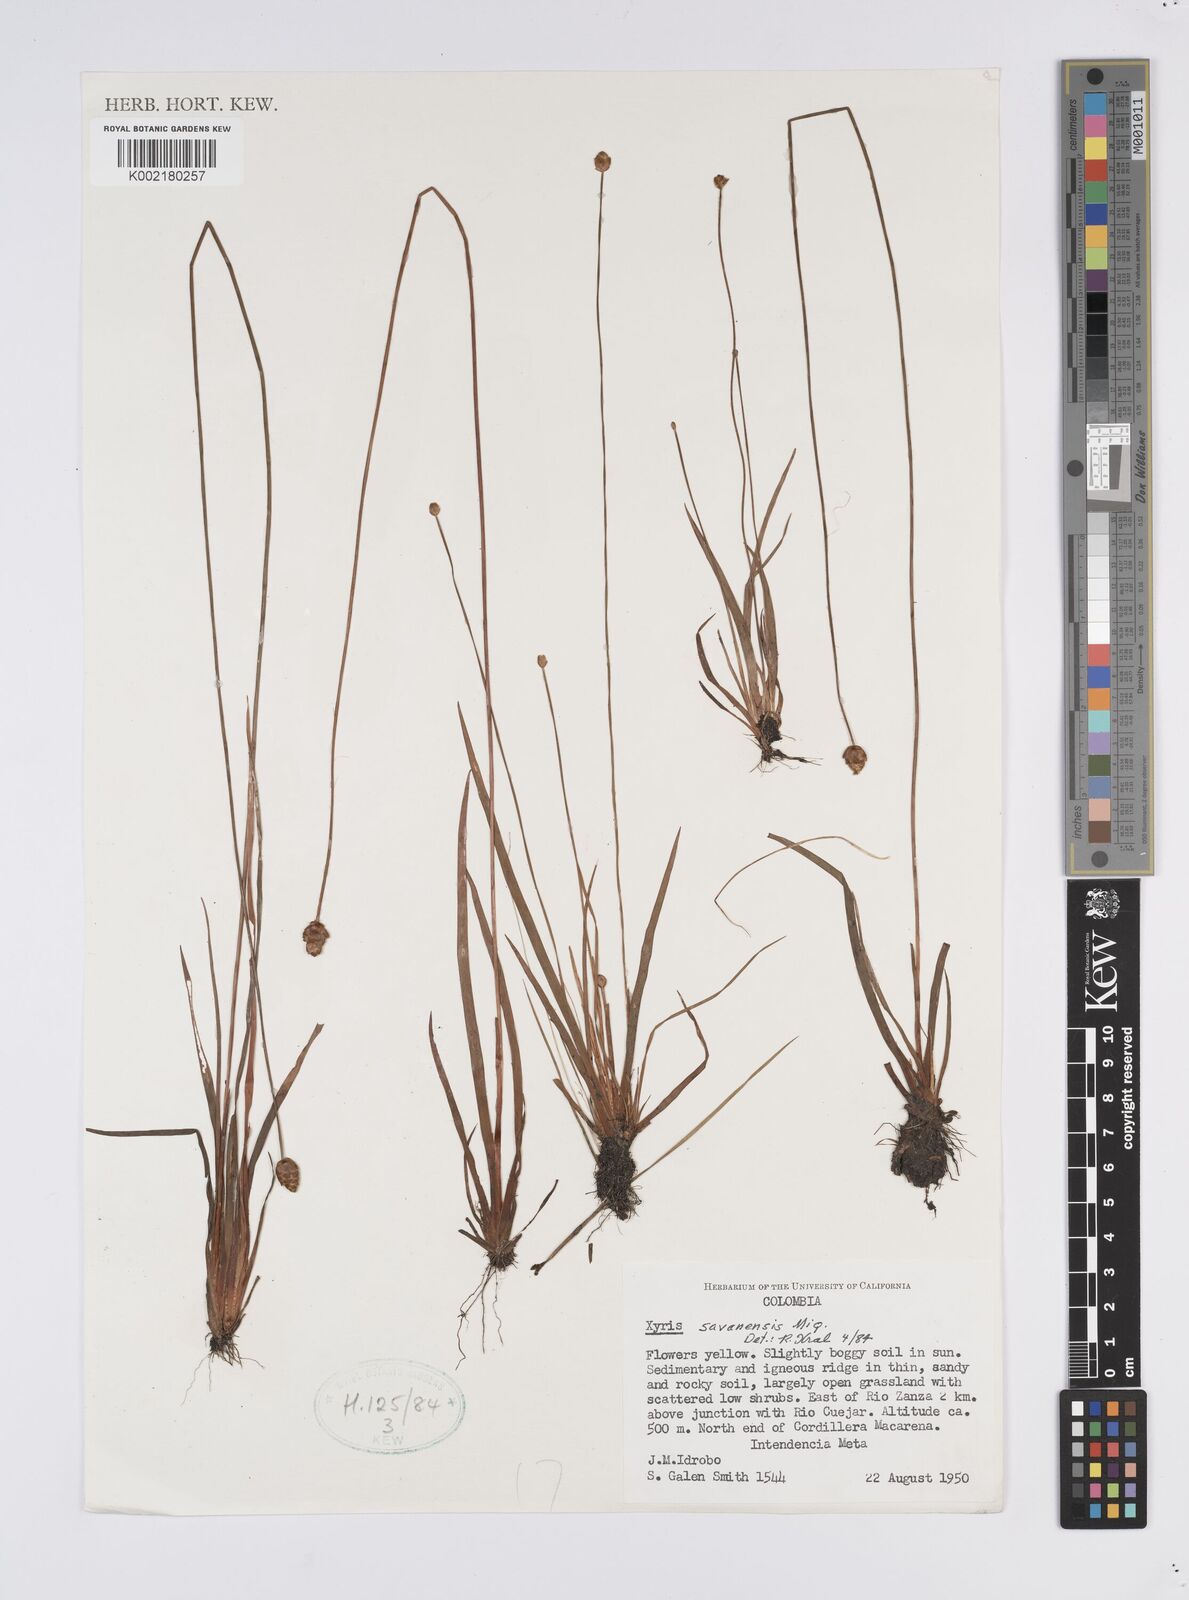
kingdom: Plantae
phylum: Tracheophyta
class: Liliopsida
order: Poales
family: Xyridaceae
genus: Xyris
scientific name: Xyris savanensis
